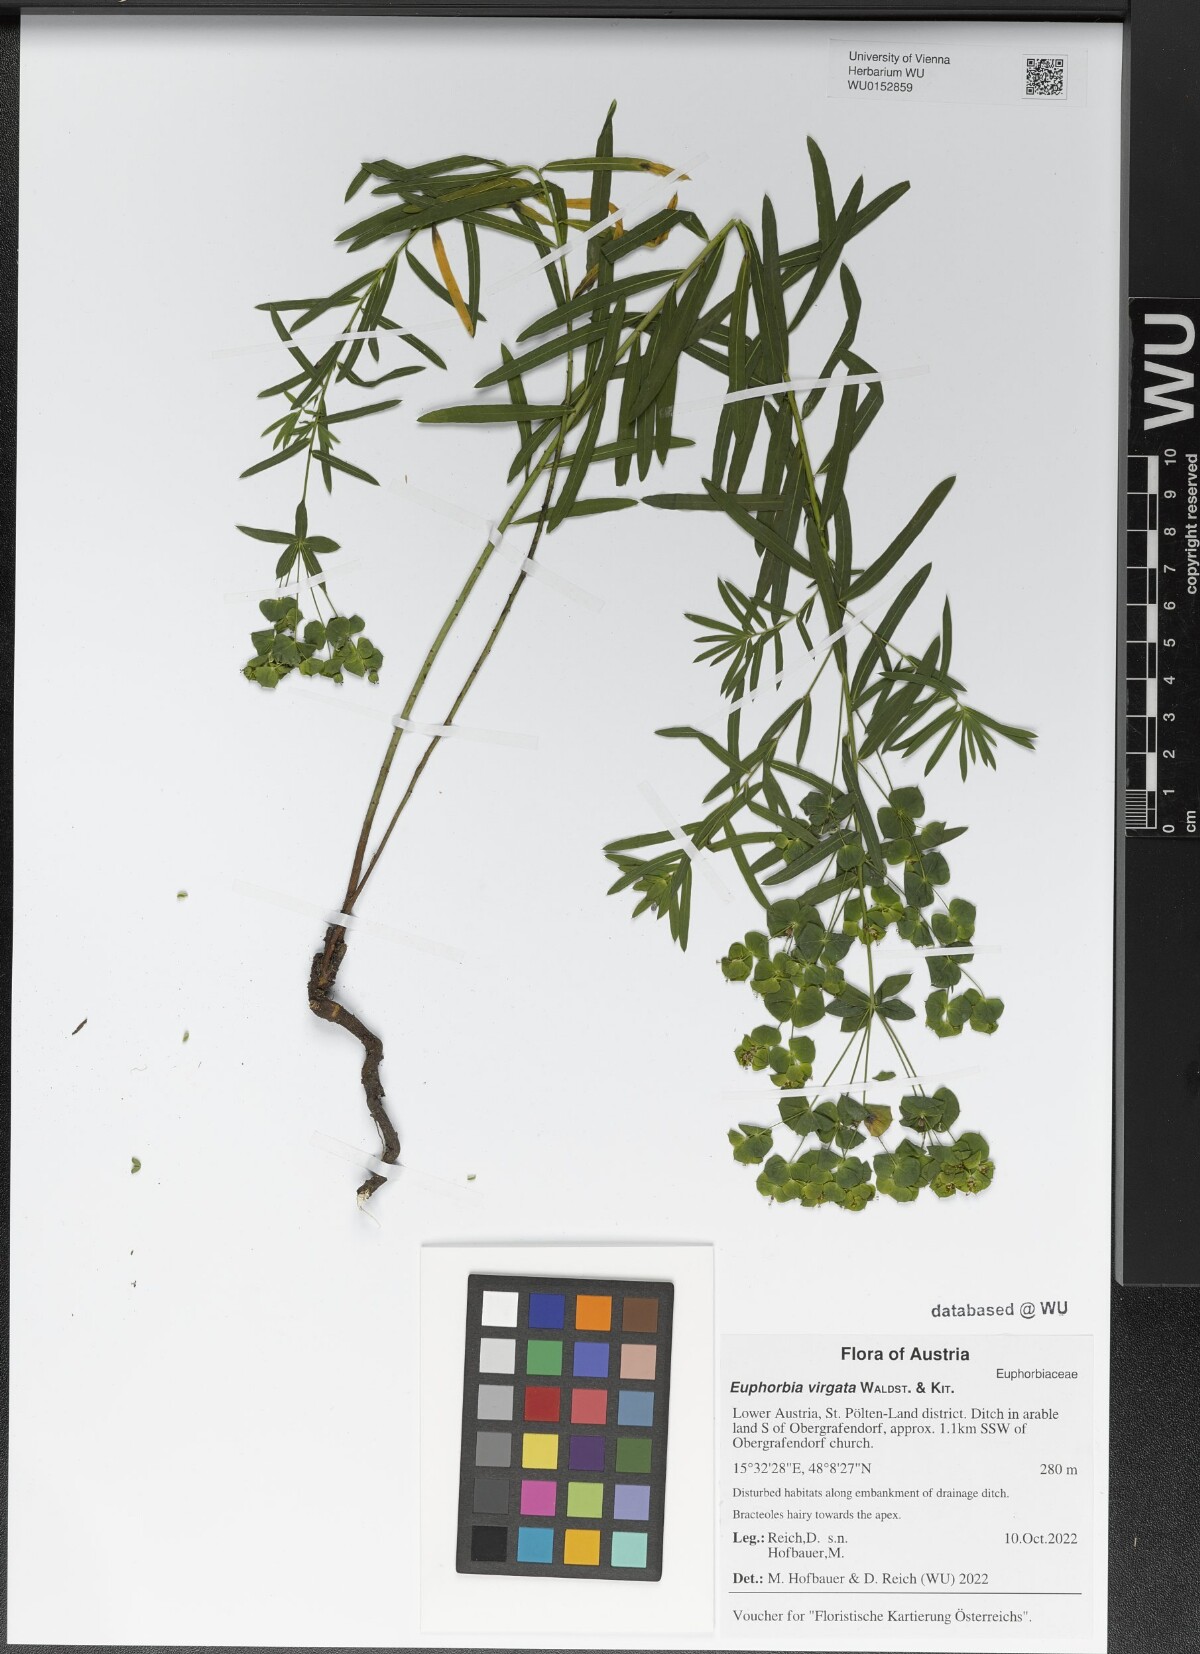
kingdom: Plantae
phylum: Tracheophyta
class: Magnoliopsida
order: Malpighiales
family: Euphorbiaceae
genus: Euphorbia
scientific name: Euphorbia virgata
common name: Leafy spurge
